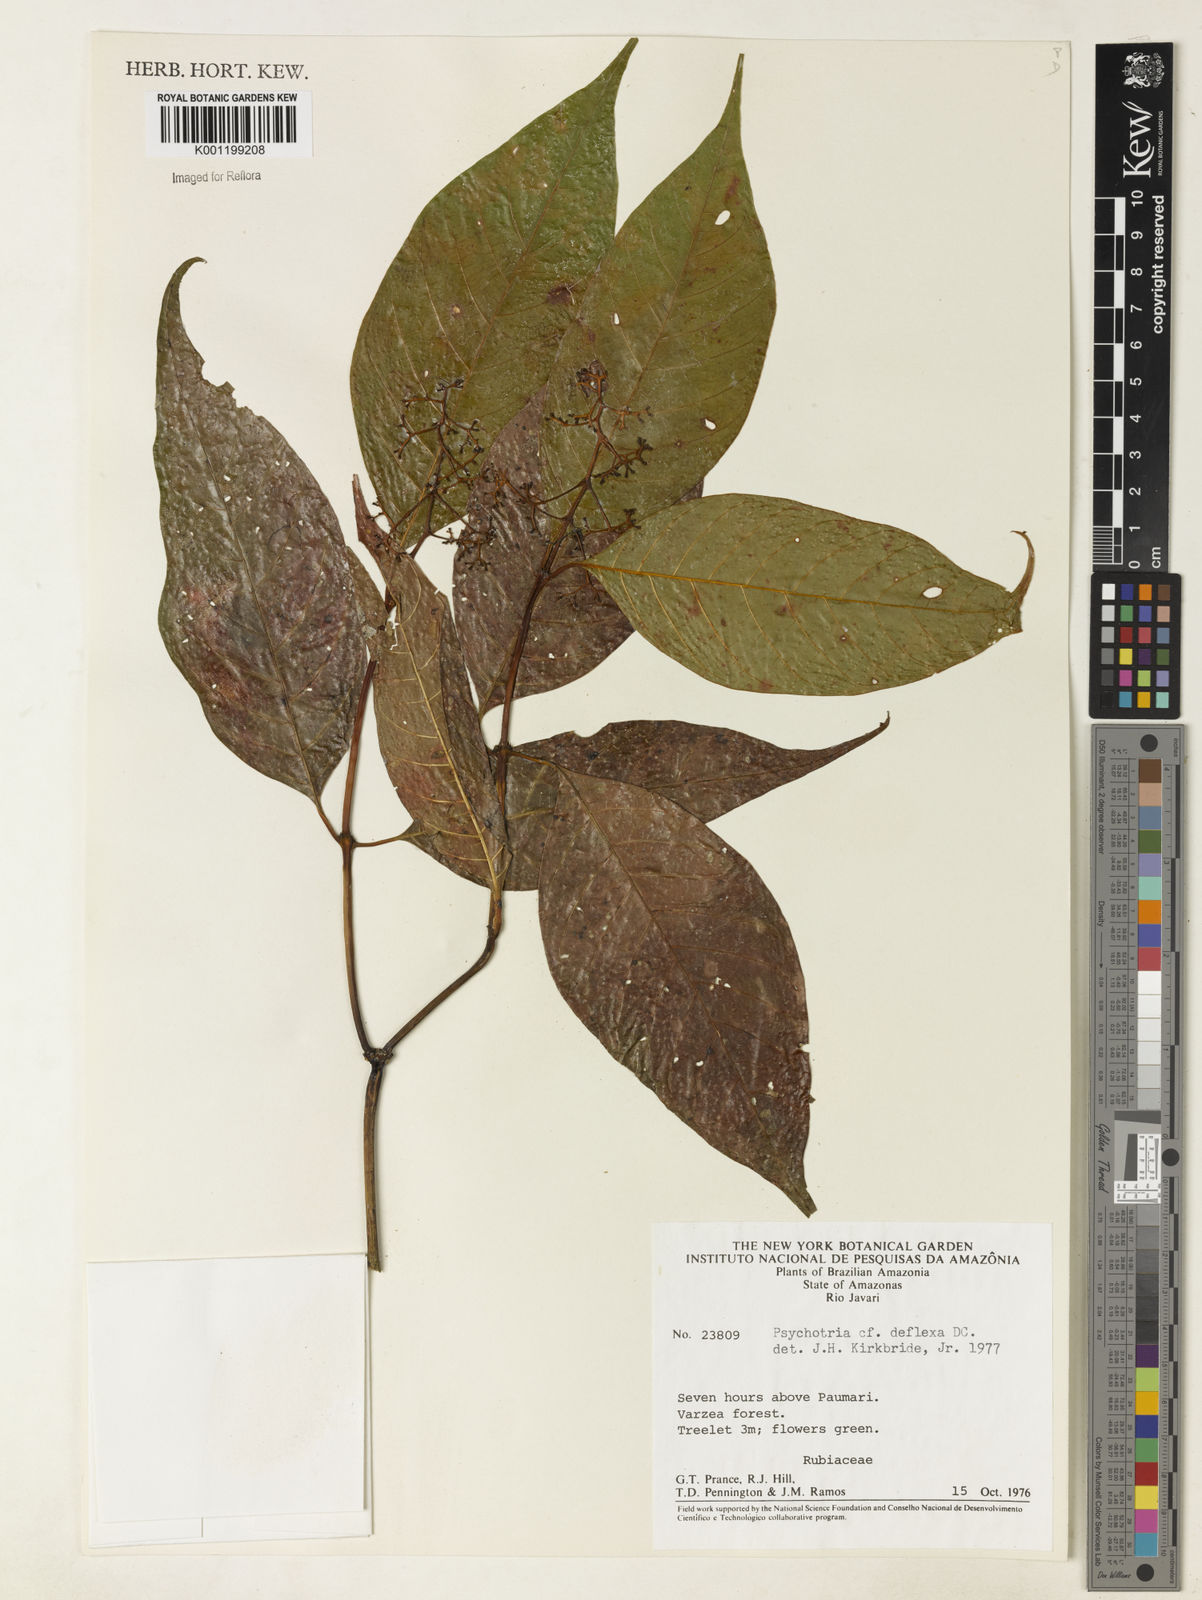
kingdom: Plantae
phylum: Tracheophyta
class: Magnoliopsida
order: Gentianales
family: Rubiaceae
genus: Palicourea
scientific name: Palicourea deflexa
